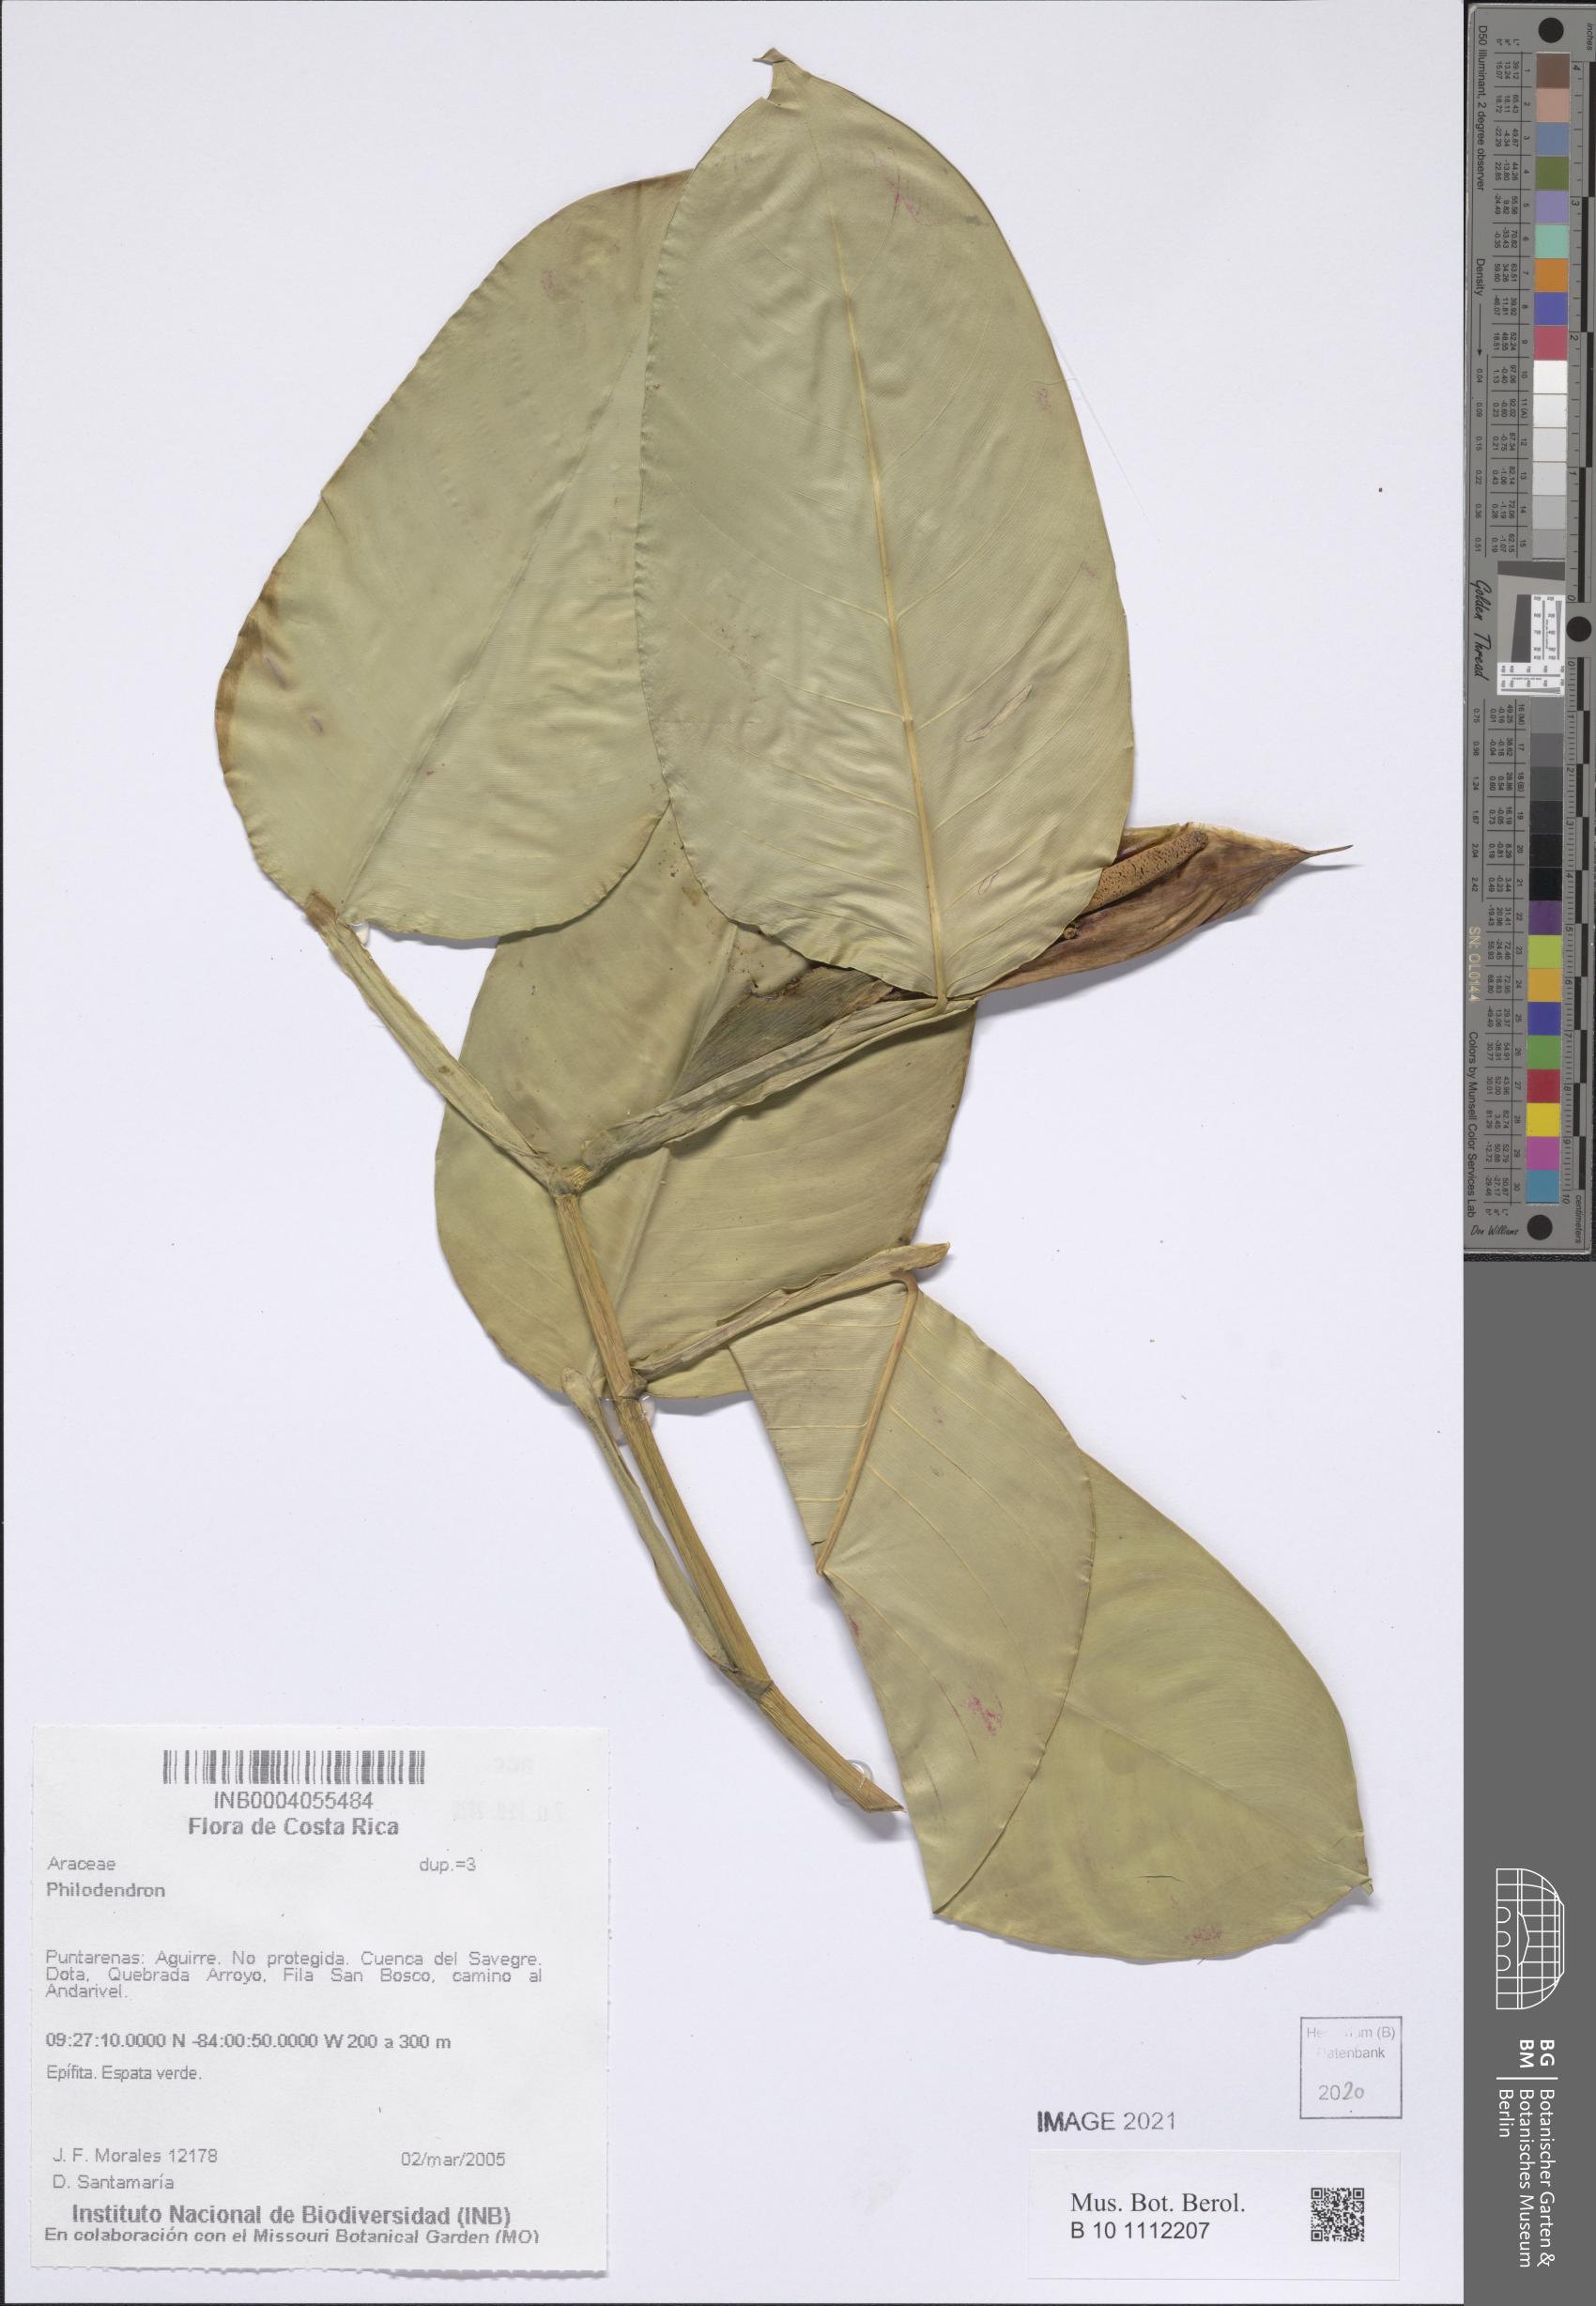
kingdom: Plantae
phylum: Tracheophyta
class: Liliopsida
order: Alismatales
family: Araceae
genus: Philodendron
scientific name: Philodendron
